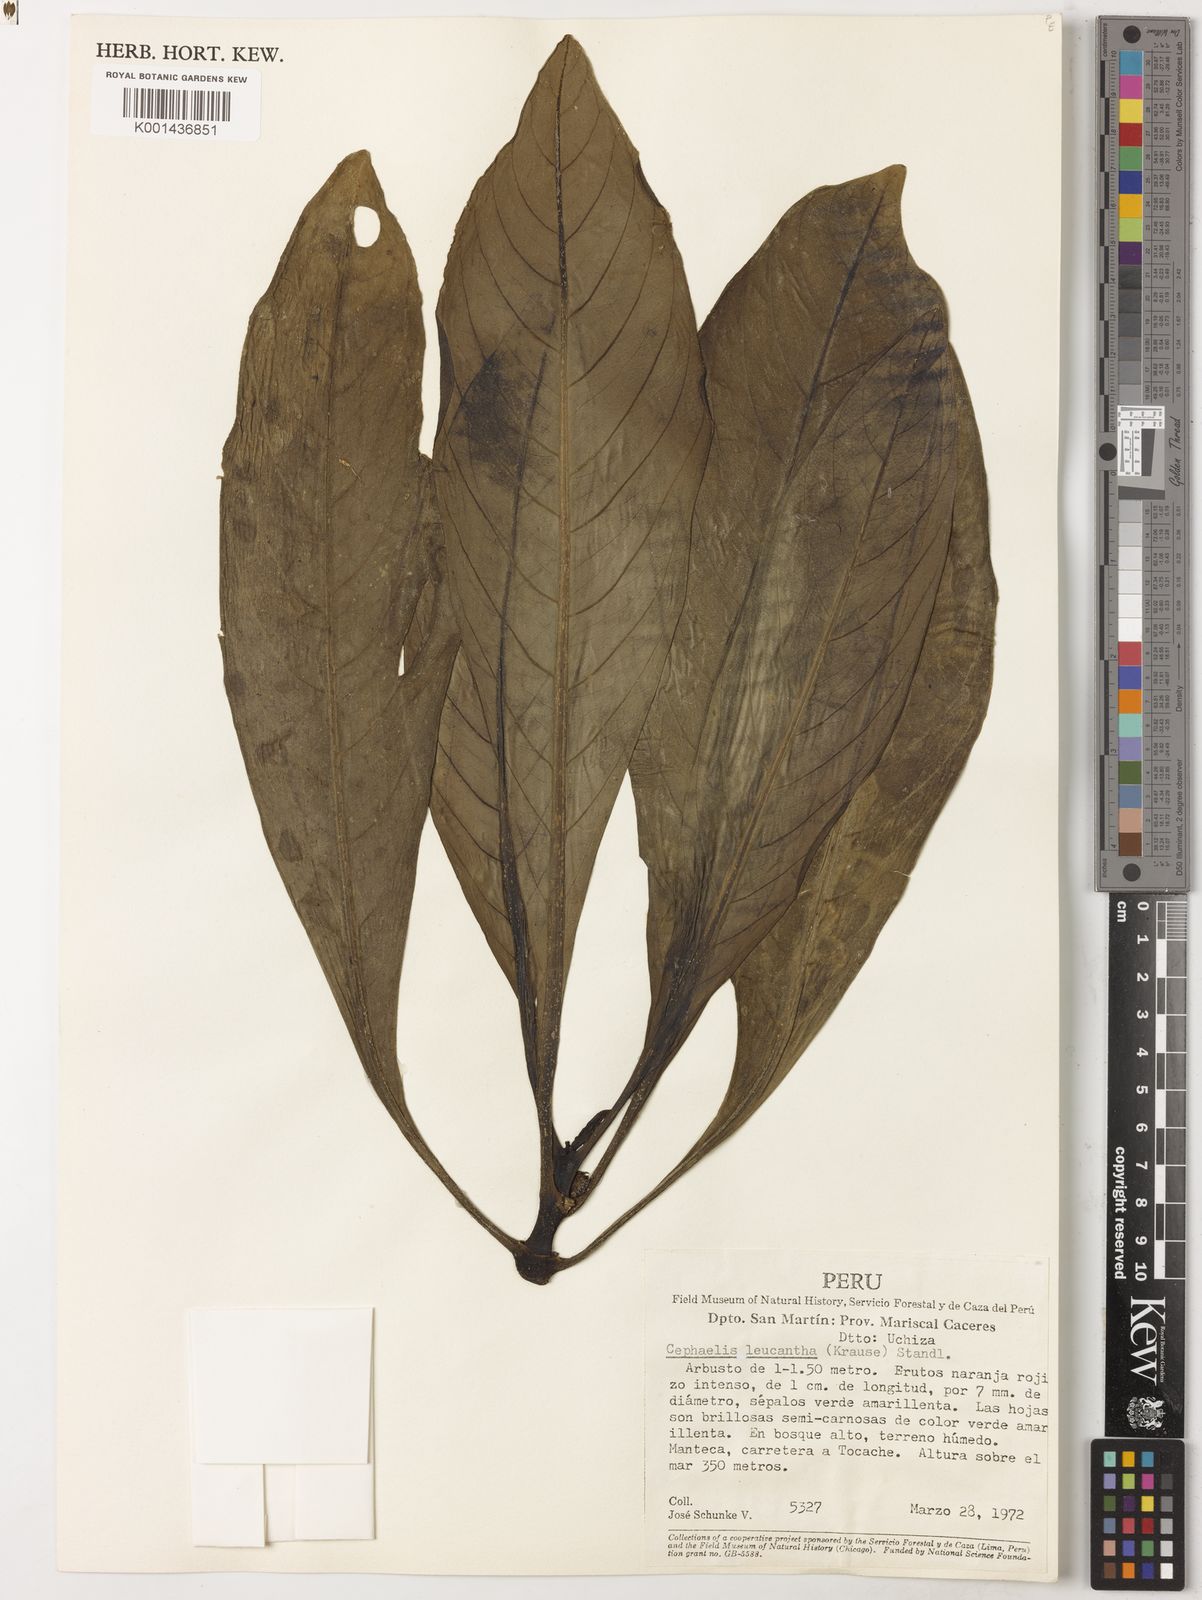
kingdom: Plantae
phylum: Tracheophyta
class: Magnoliopsida
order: Gentianales
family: Rubiaceae
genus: Notopleura
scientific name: Notopleura leucantha
